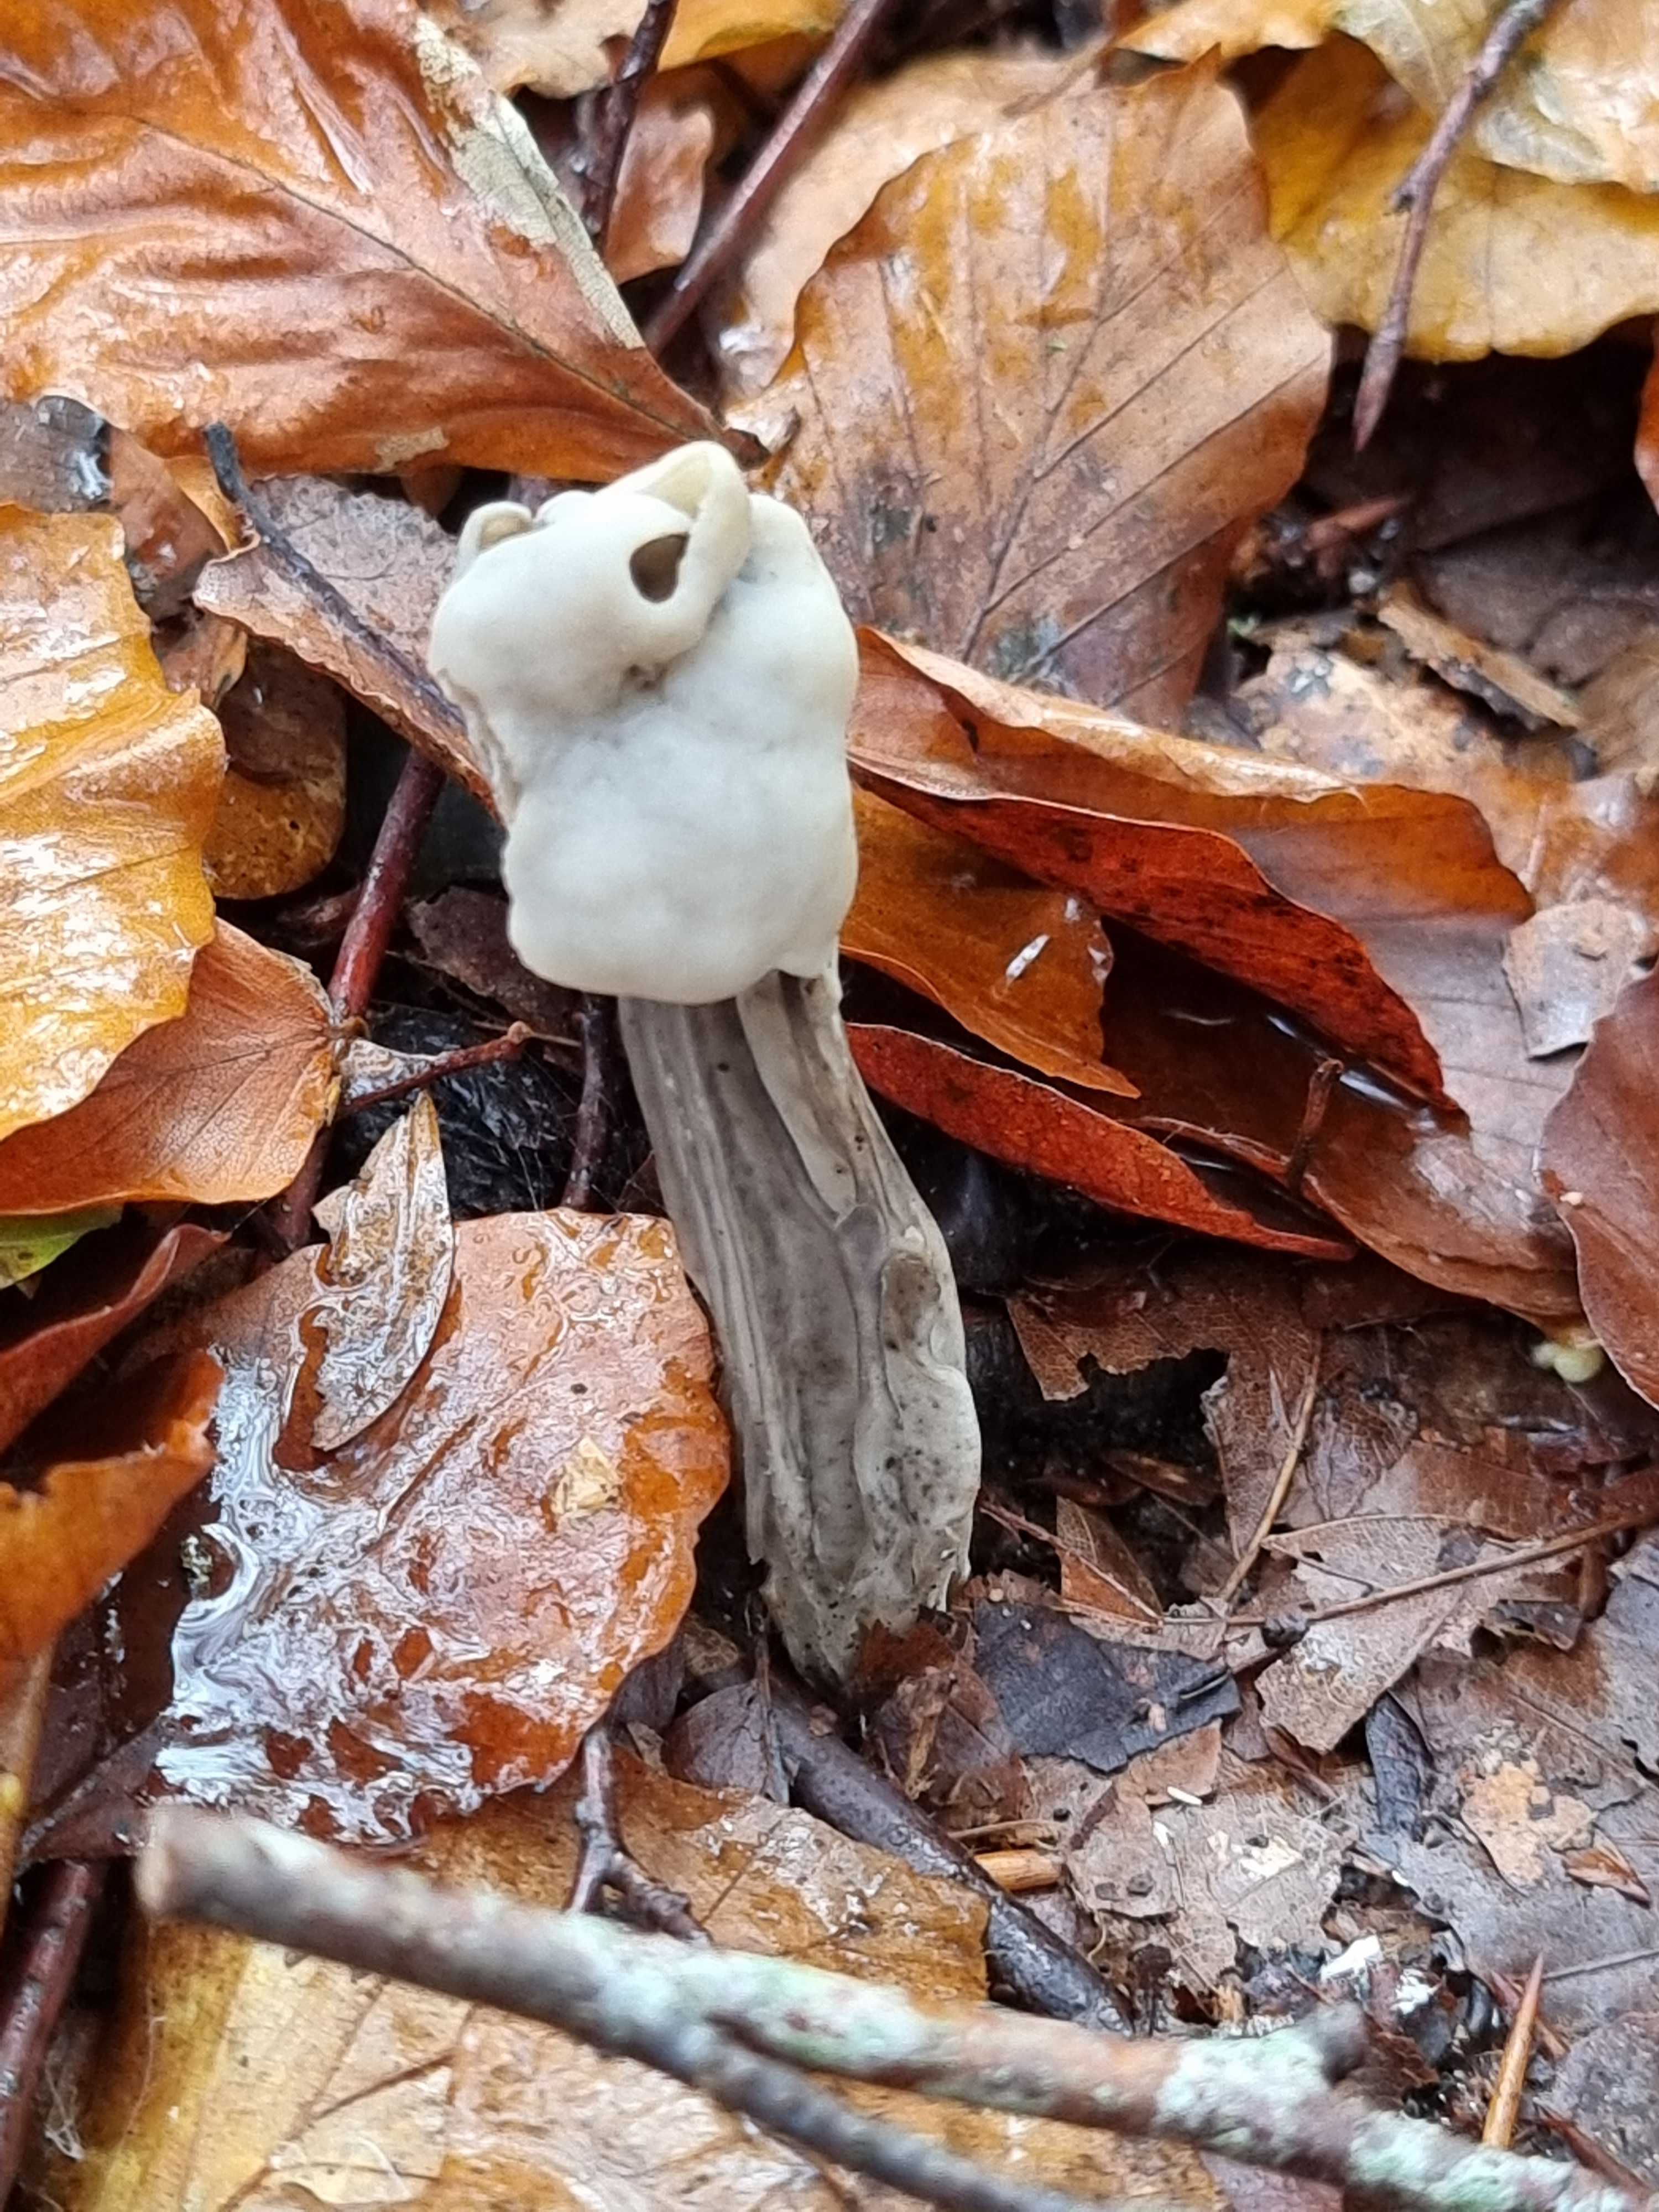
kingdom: Fungi
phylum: Ascomycota
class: Pezizomycetes
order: Pezizales
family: Helvellaceae
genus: Helvella
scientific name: Helvella lacunosa
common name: grubet foldhat
